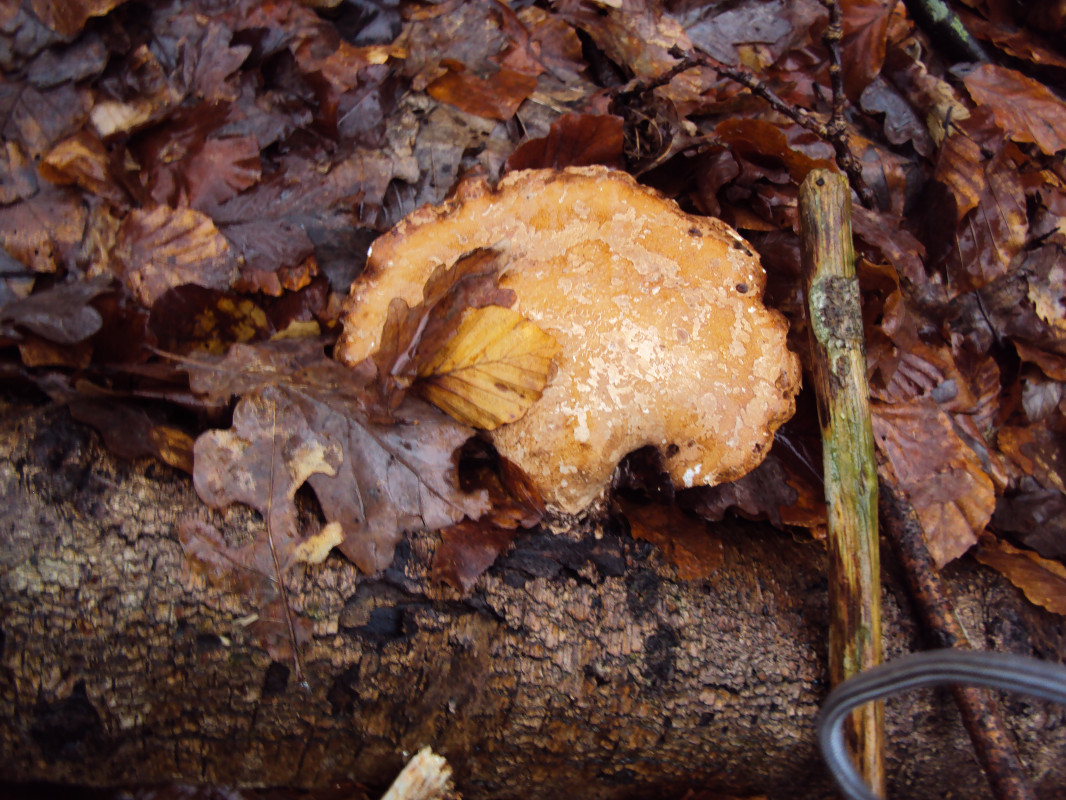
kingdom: Fungi
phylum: Basidiomycota
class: Agaricomycetes
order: Polyporales
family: Fomitopsidaceae
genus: Fomitopsis
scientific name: Fomitopsis betulina
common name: birkeporesvamp
